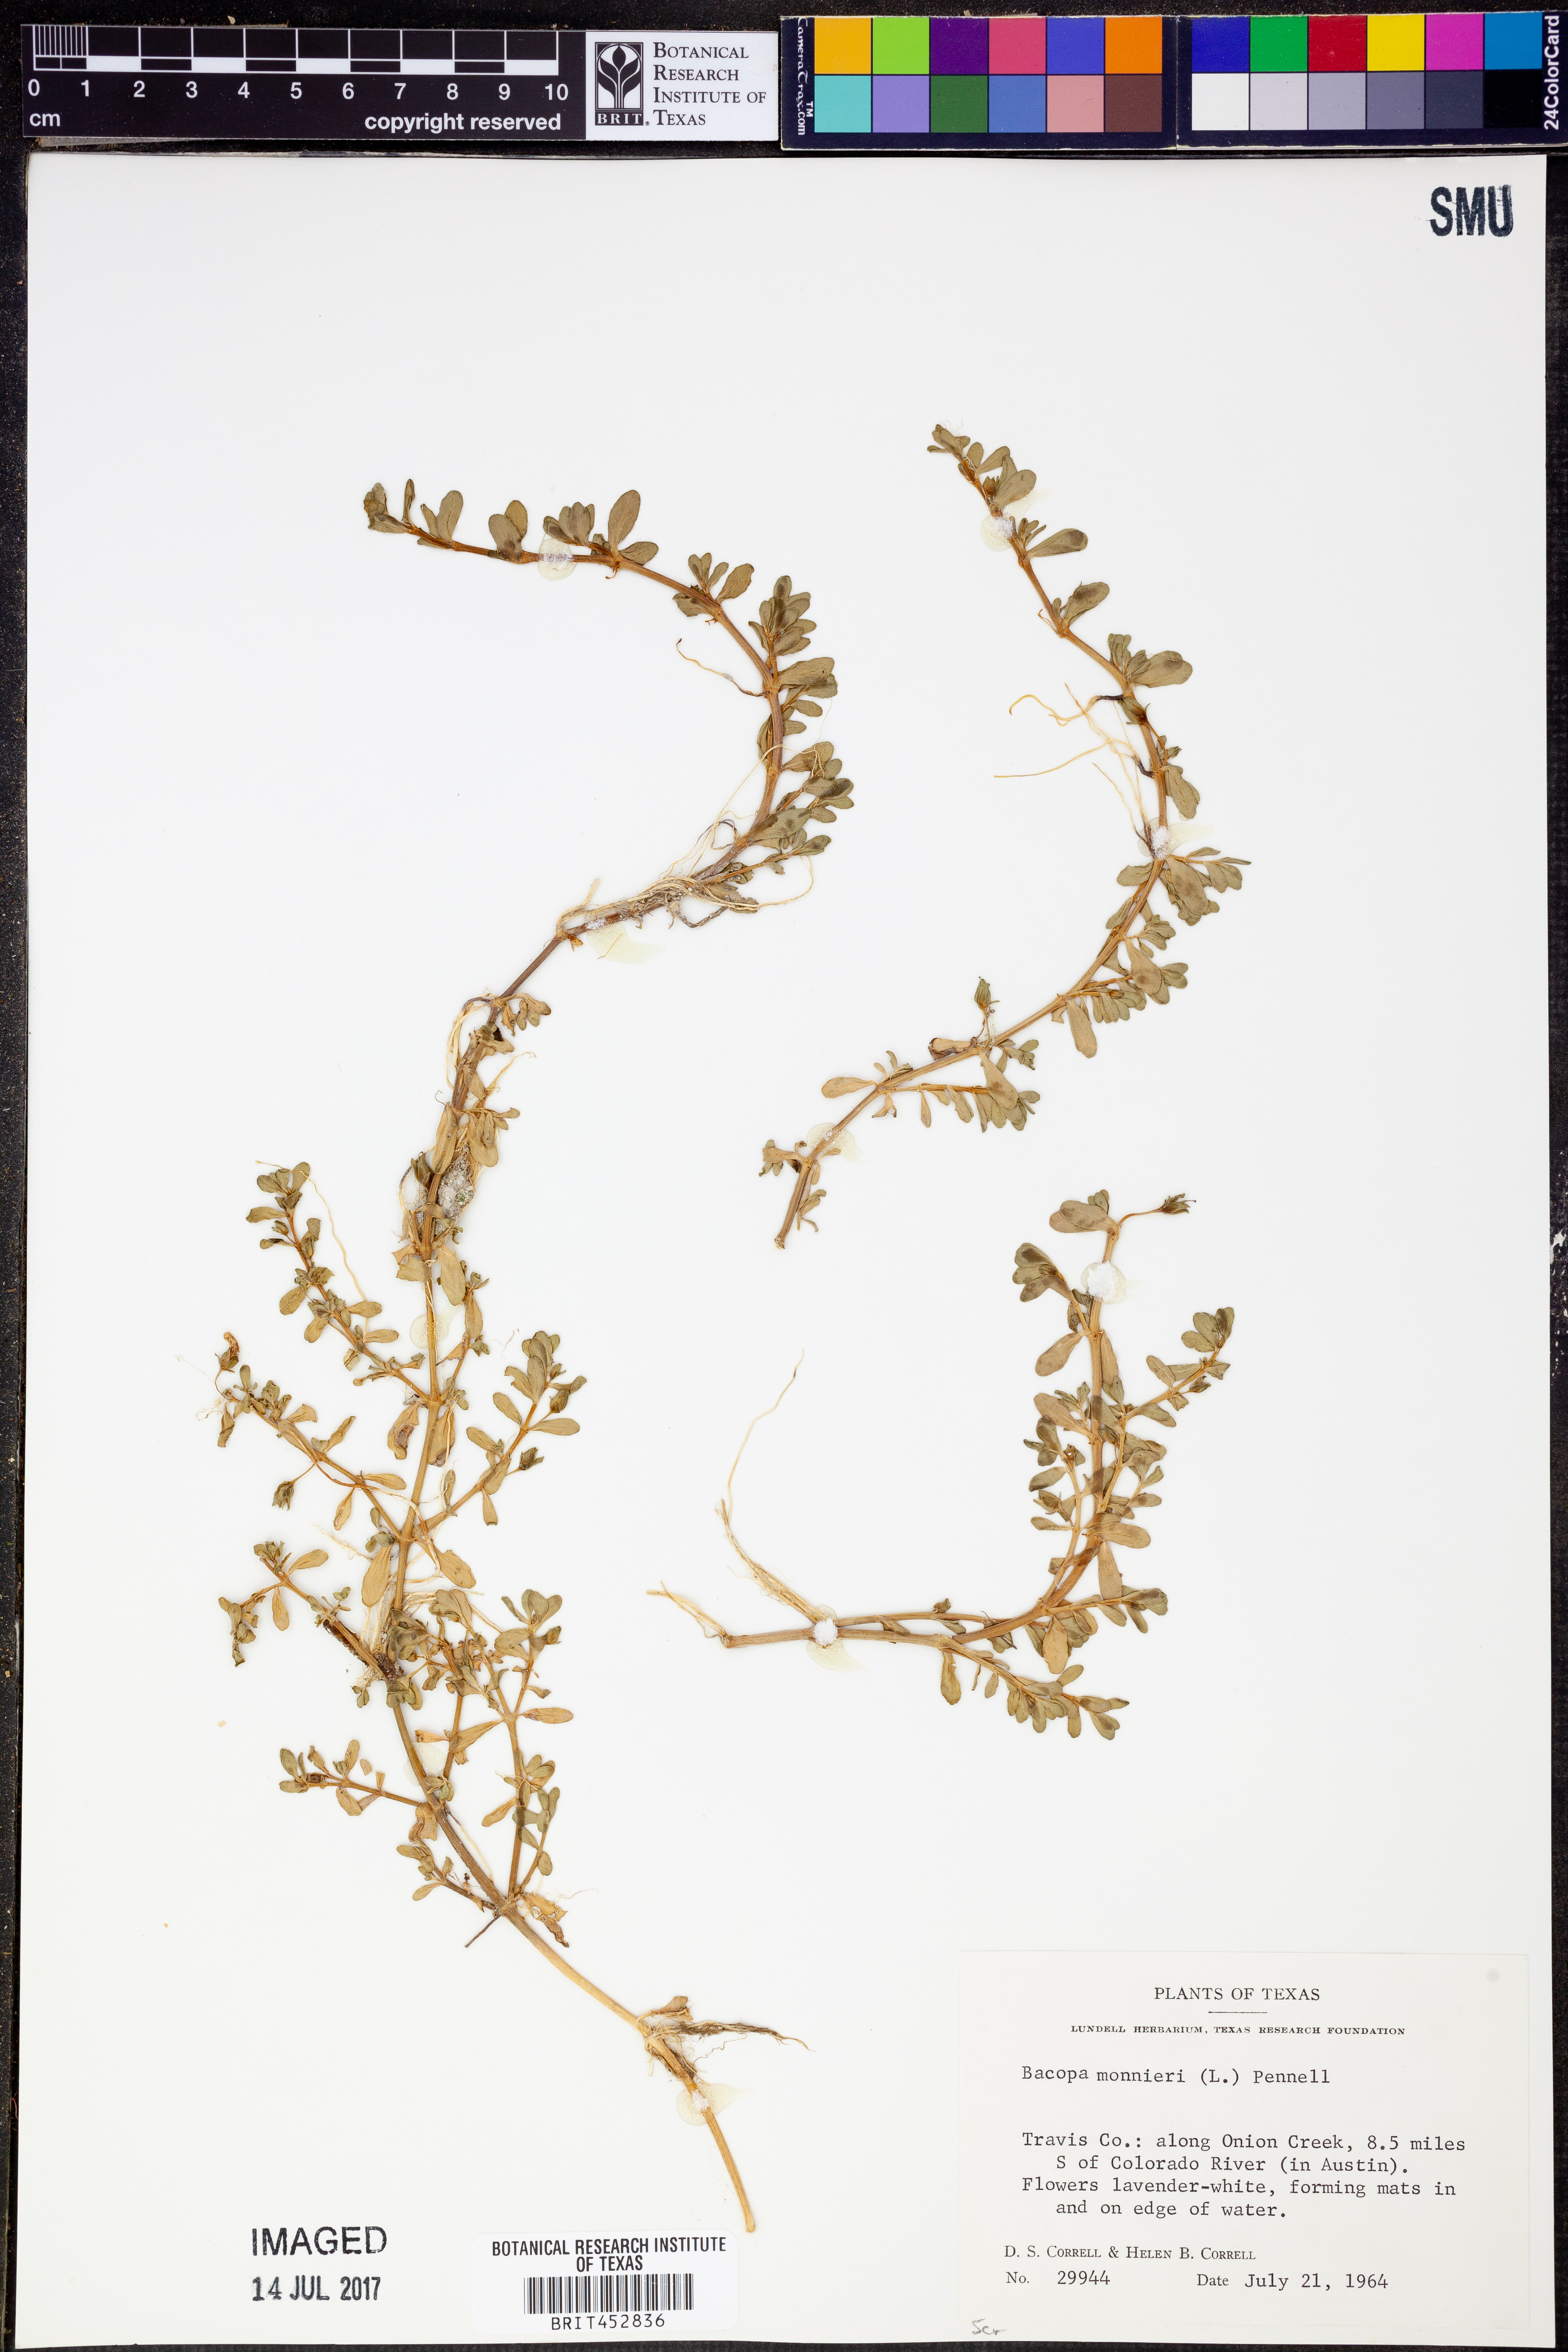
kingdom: Plantae
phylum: Tracheophyta
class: Magnoliopsida
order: Lamiales
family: Plantaginaceae
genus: Bacopa
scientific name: Bacopa monnieri
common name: Indian-pennywort
